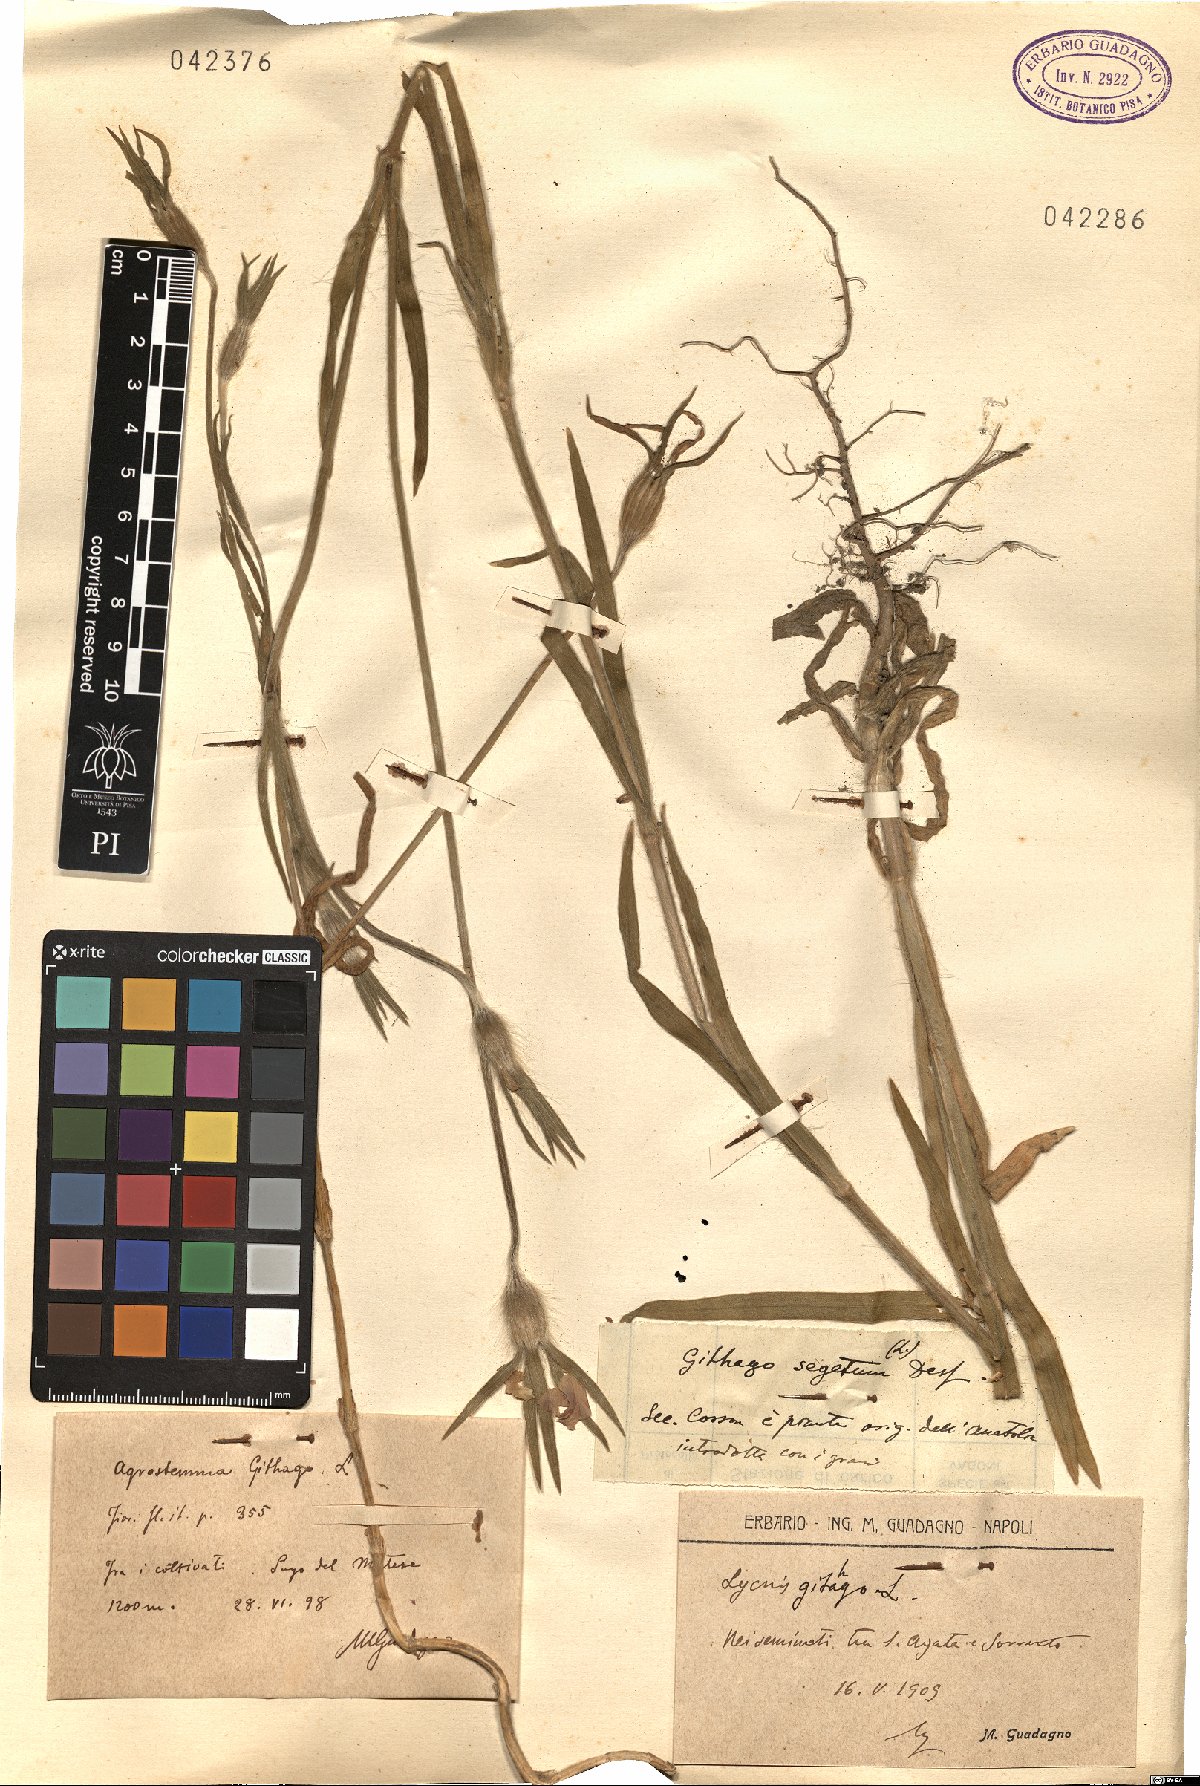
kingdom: Plantae
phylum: Tracheophyta
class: Magnoliopsida
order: Caryophyllales
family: Caryophyllaceae
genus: Agrostemma
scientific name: Agrostemma githago
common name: Common corncockle
